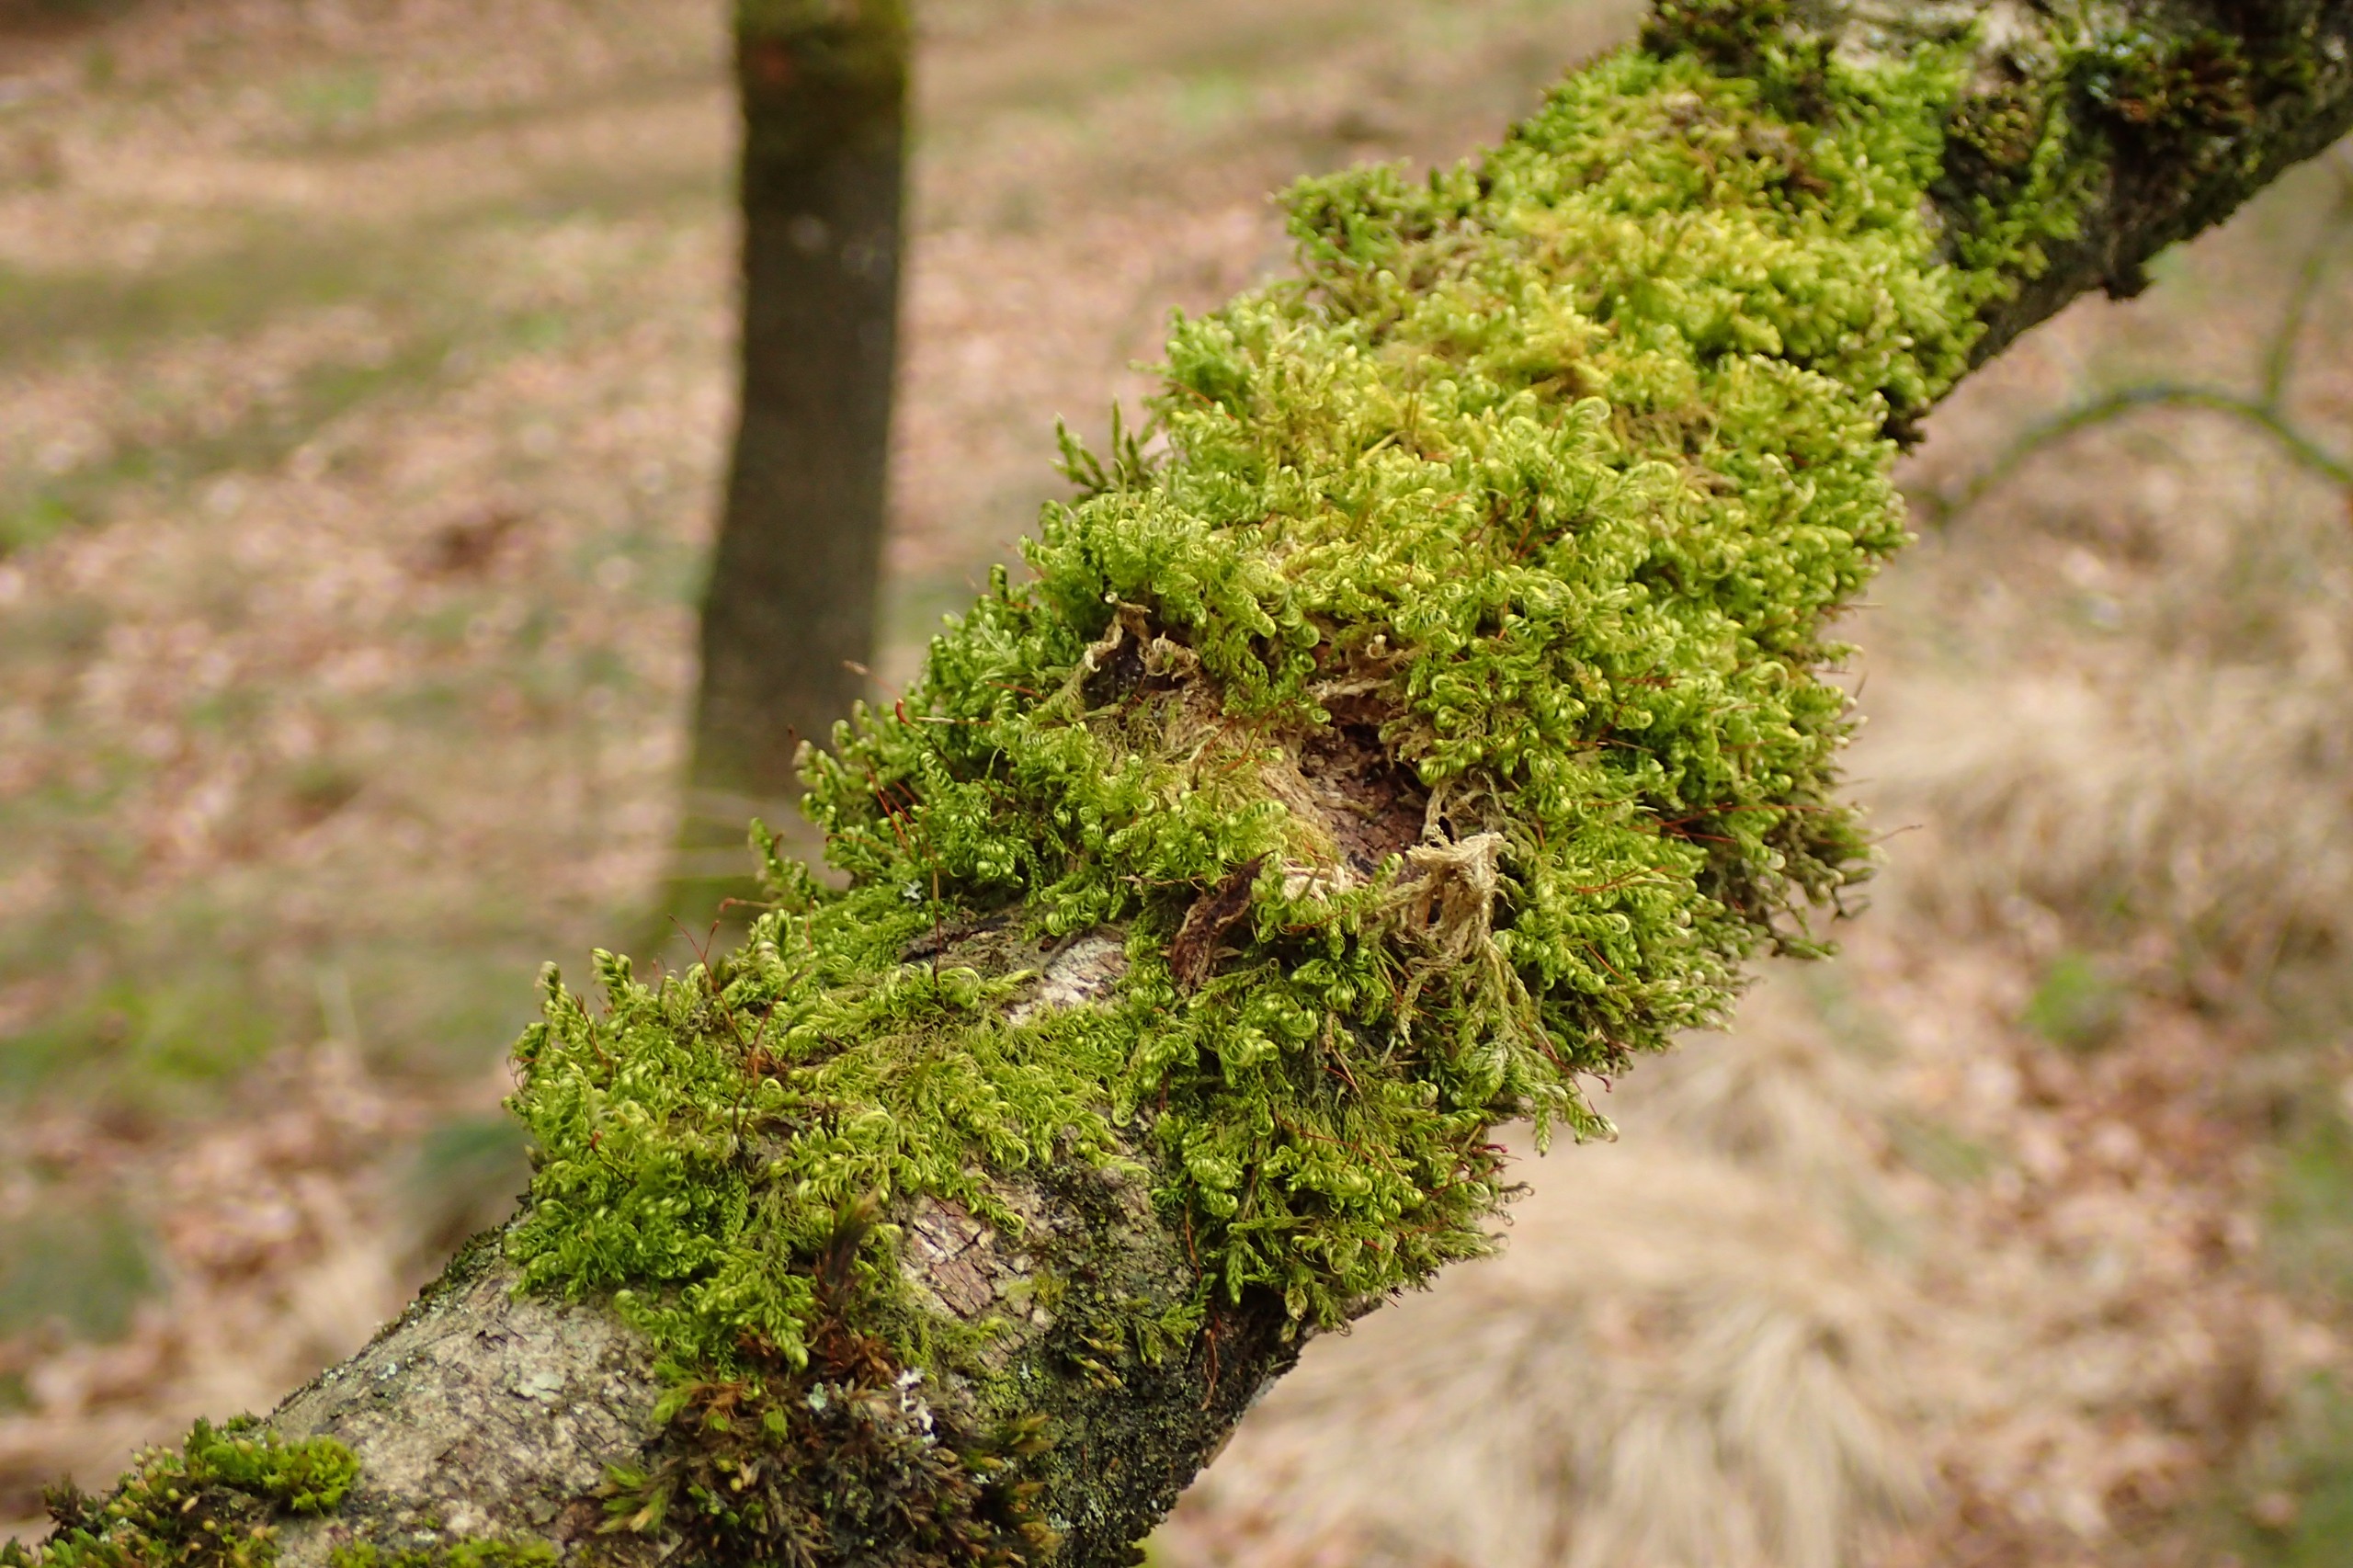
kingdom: Plantae
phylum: Bryophyta
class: Bryopsida
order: Hypnales
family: Scorpidiaceae
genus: Sanionia
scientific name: Sanionia uncinata
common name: Stribet krogblad
